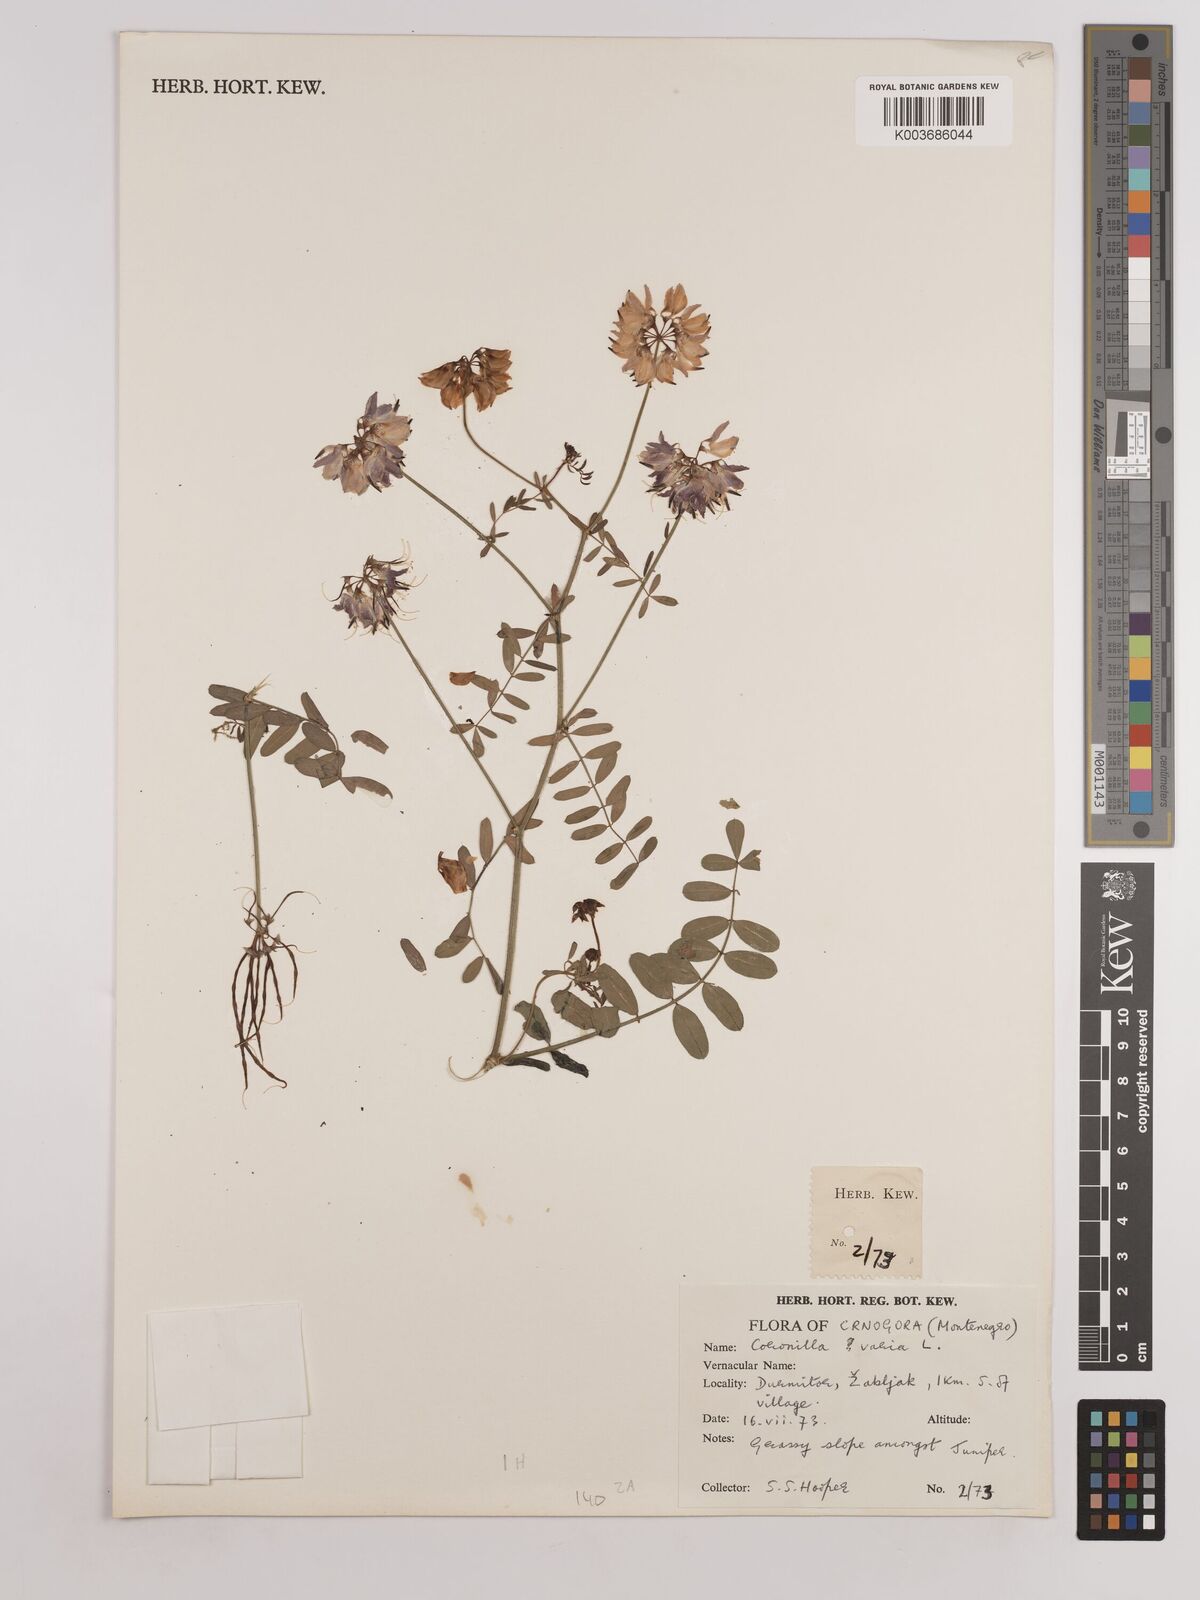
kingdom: Plantae
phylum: Tracheophyta
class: Magnoliopsida
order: Fabales
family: Fabaceae
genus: Coronilla
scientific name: Coronilla varia
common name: Crownvetch
